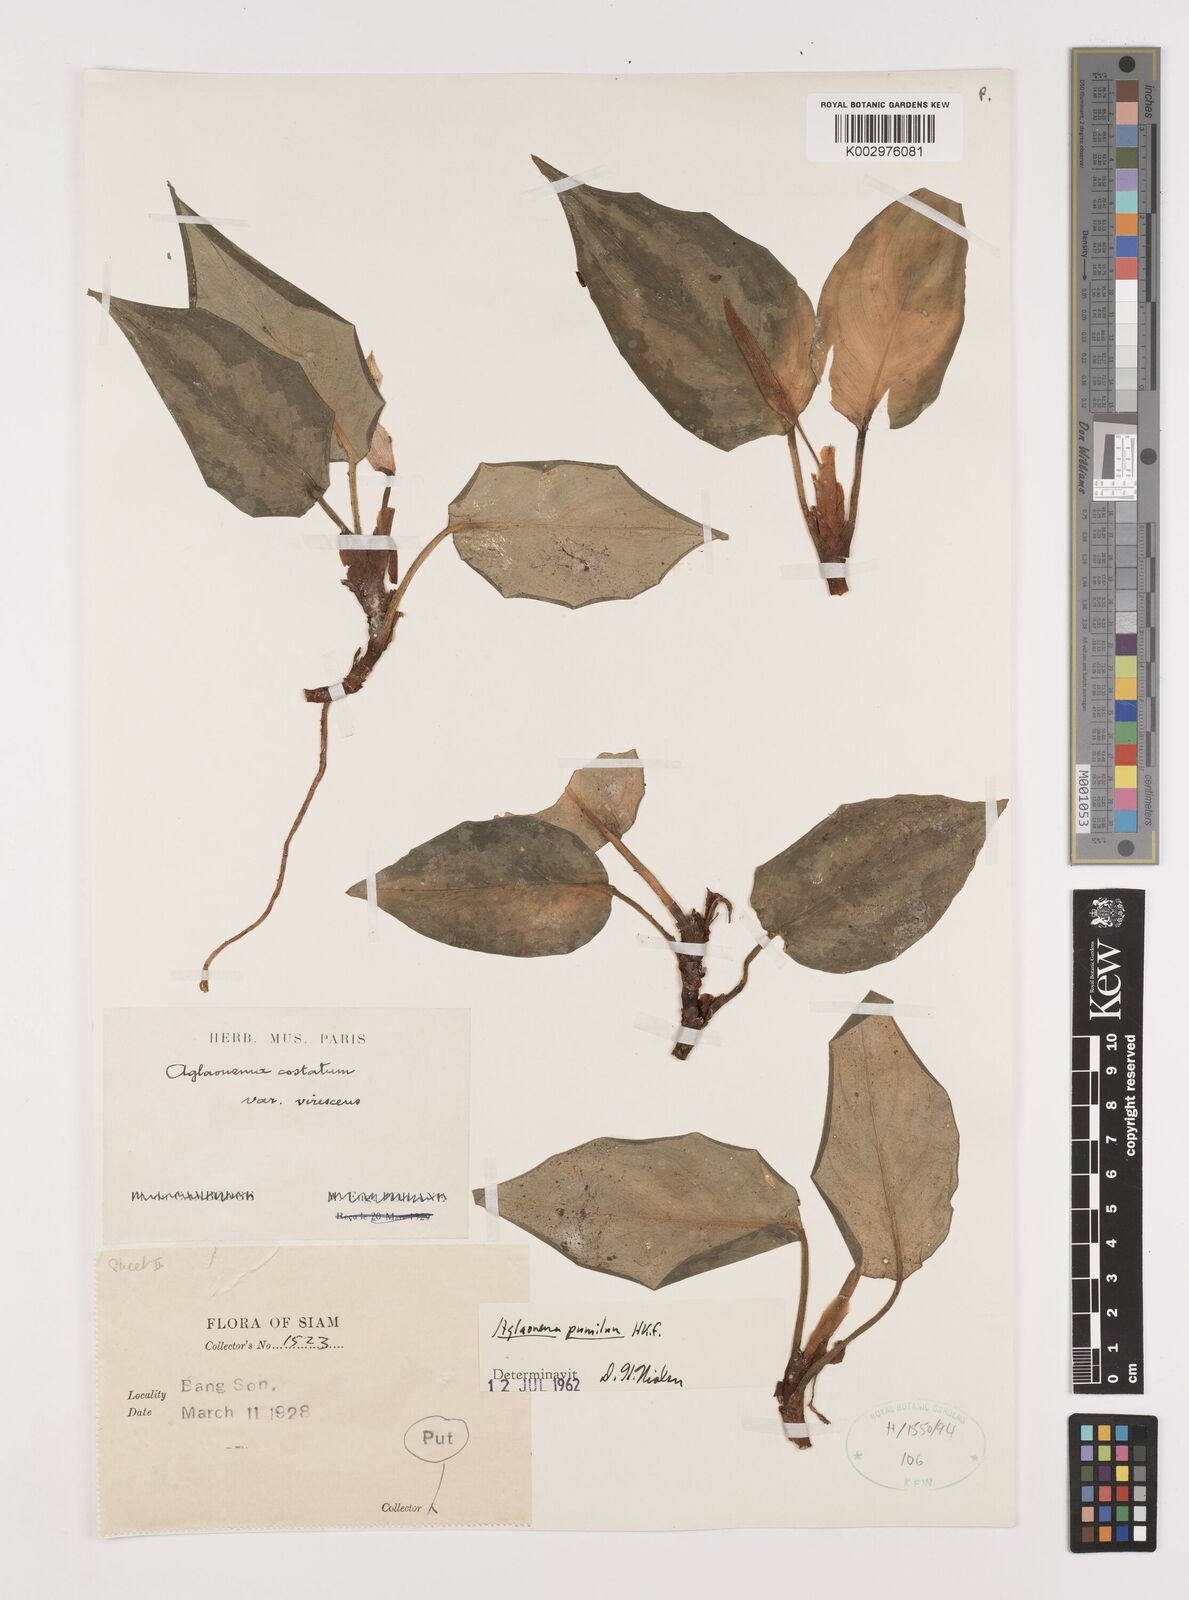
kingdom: Plantae
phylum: Tracheophyta
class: Liliopsida
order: Alismatales
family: Araceae
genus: Aglaonema
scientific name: Aglaonema pumilum
